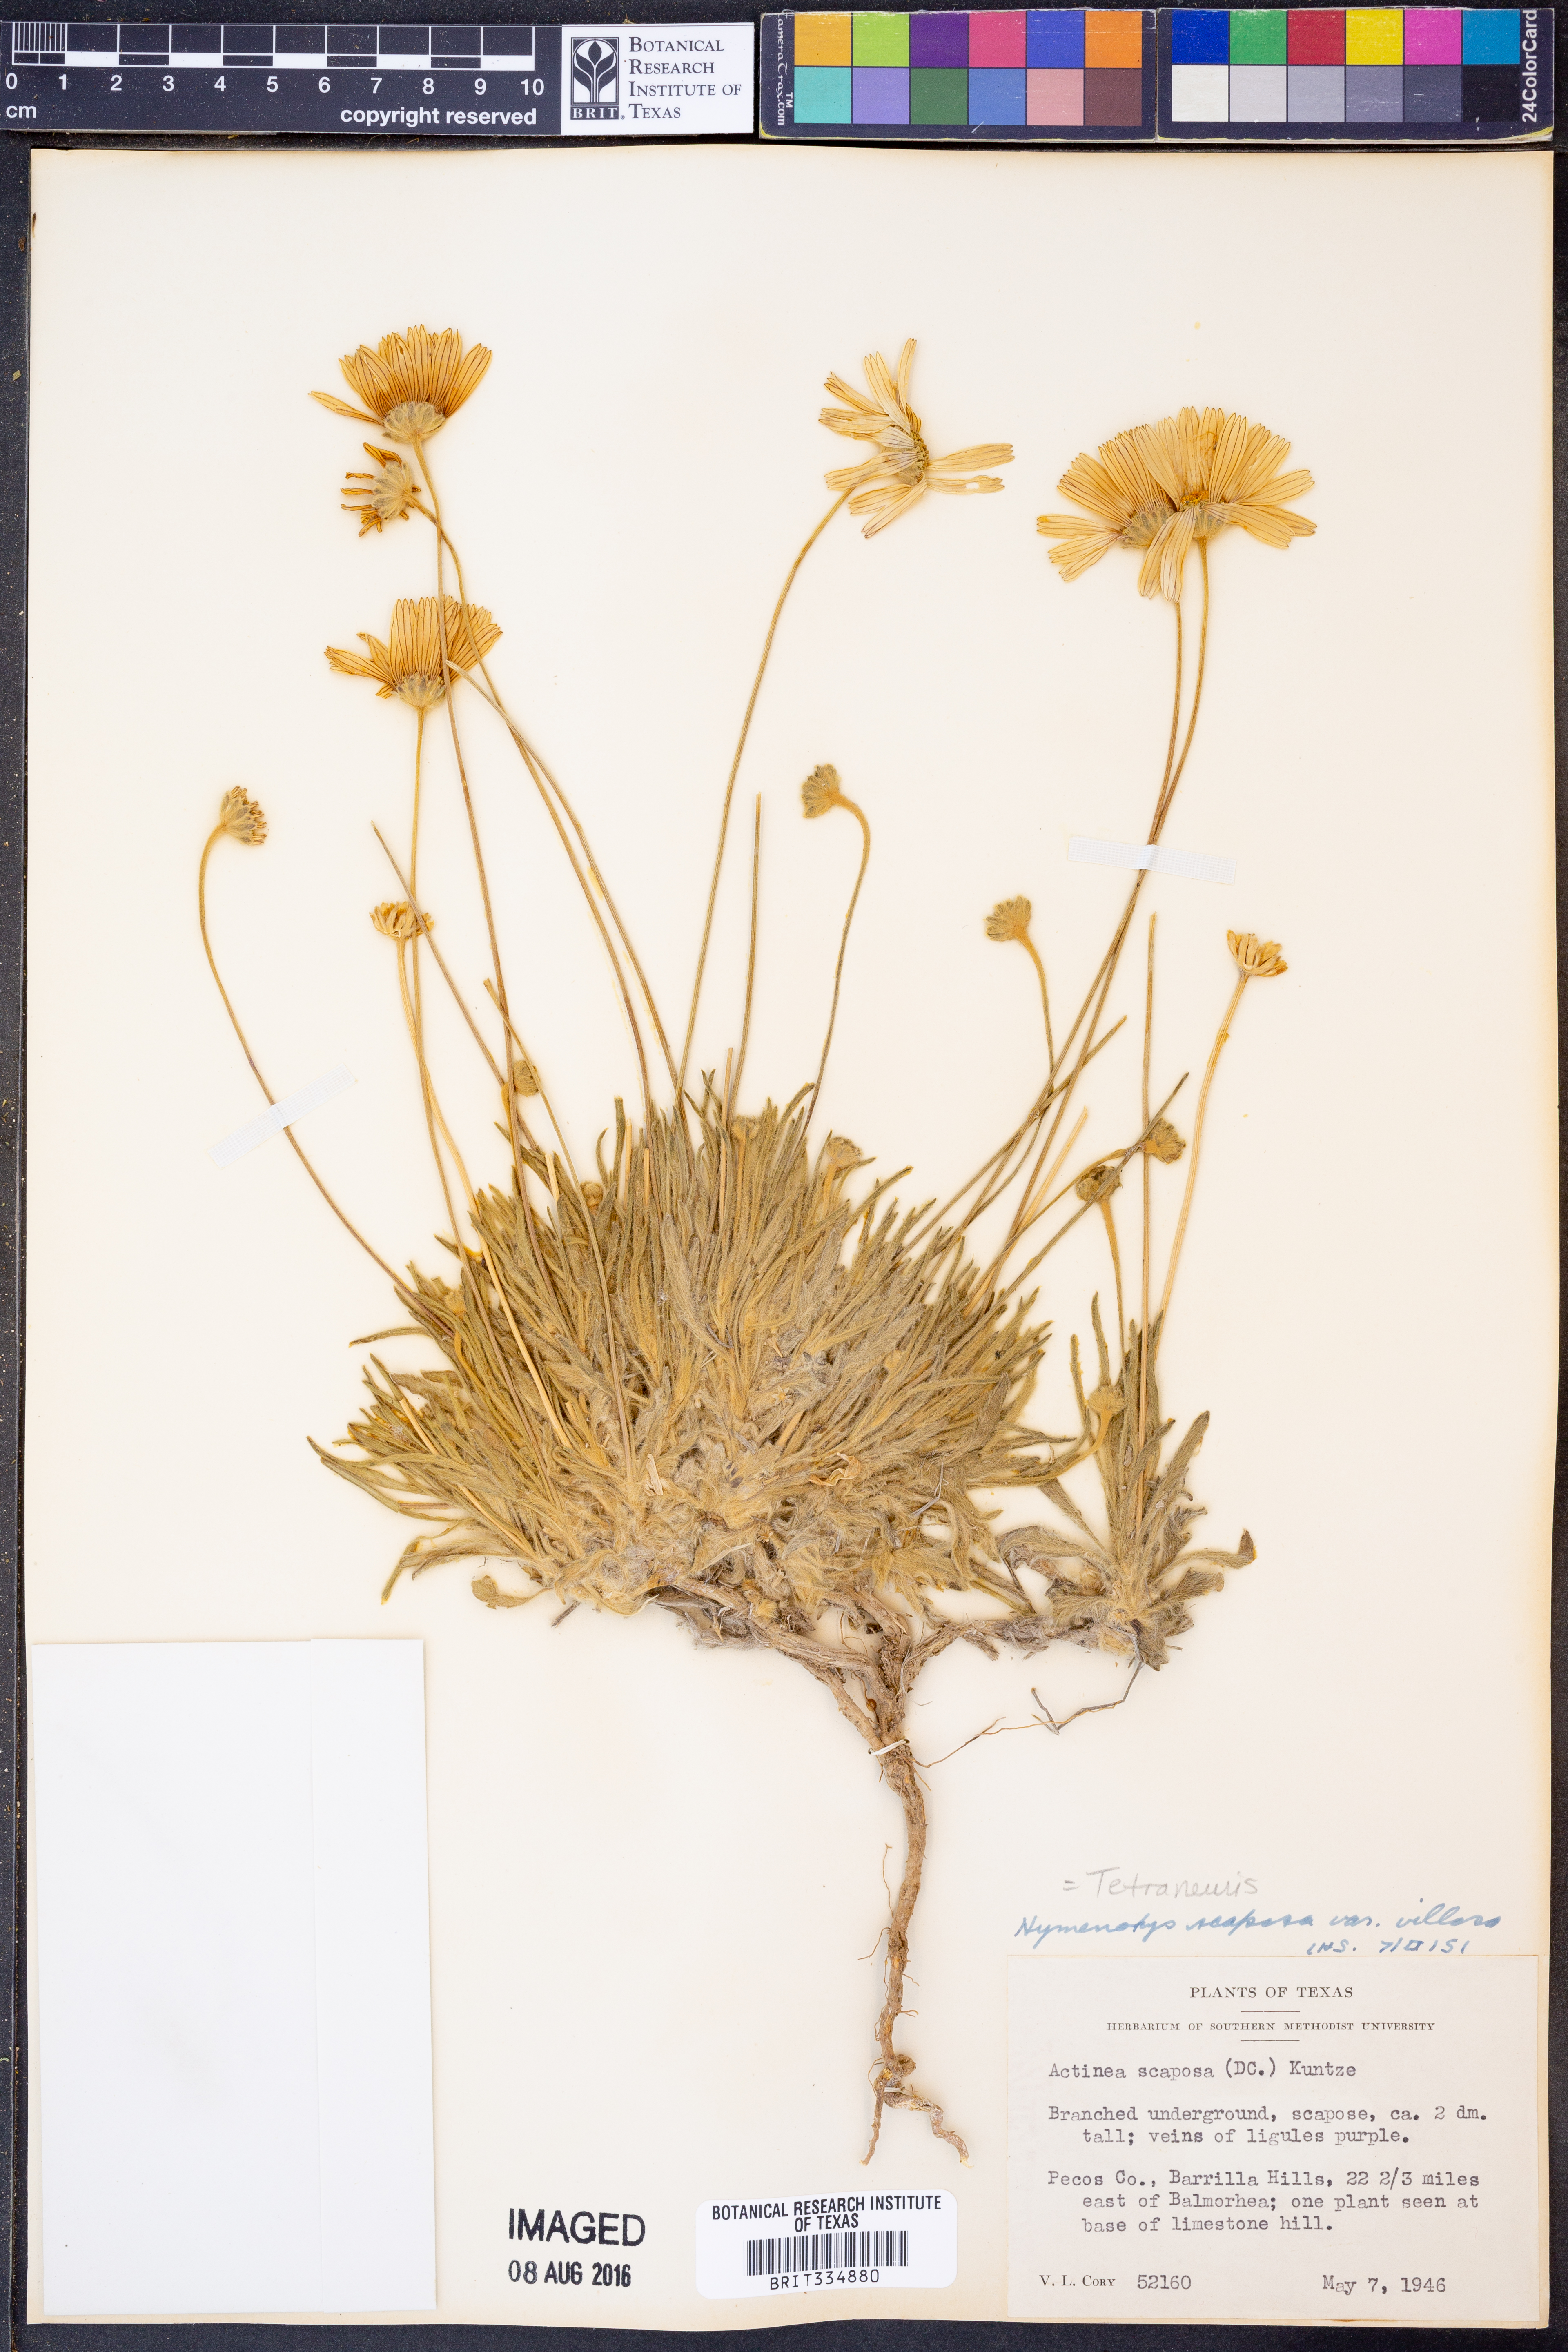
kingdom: Plantae
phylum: Tracheophyta
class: Magnoliopsida
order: Asterales
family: Asteraceae
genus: Tetraneuris
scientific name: Tetraneuris scaposa
